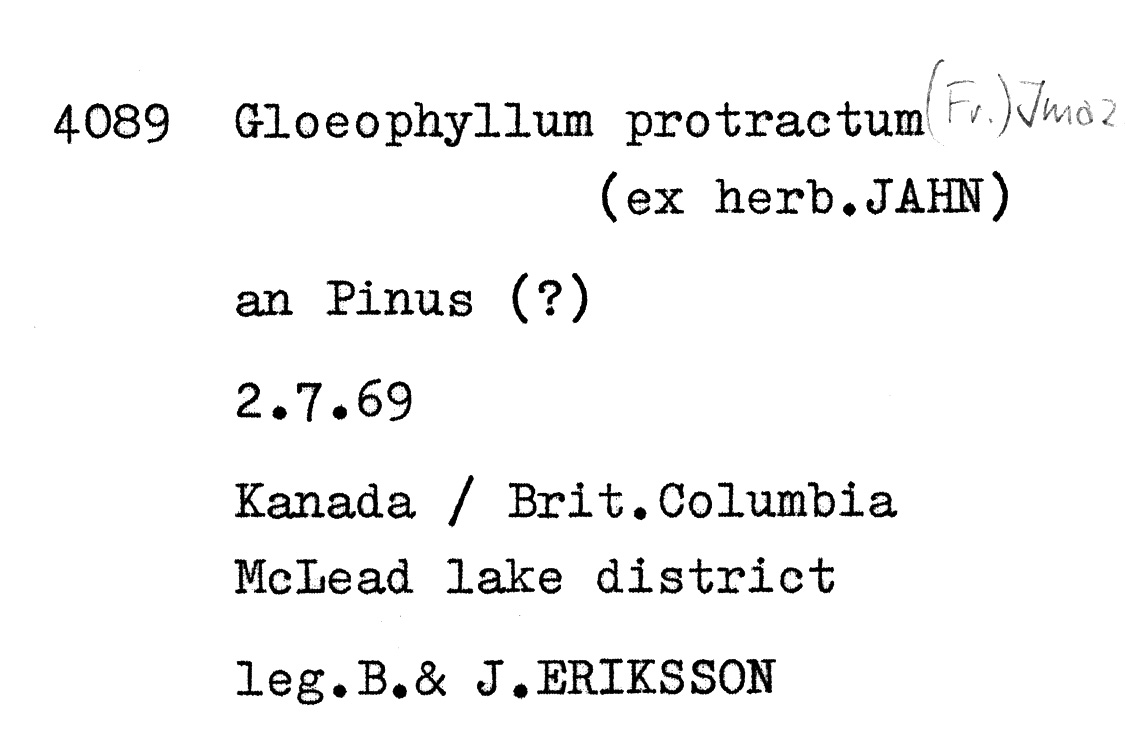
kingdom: Plantae
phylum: Tracheophyta
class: Pinopsida
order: Pinales
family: Pinaceae
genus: Pinus
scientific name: Pinus
